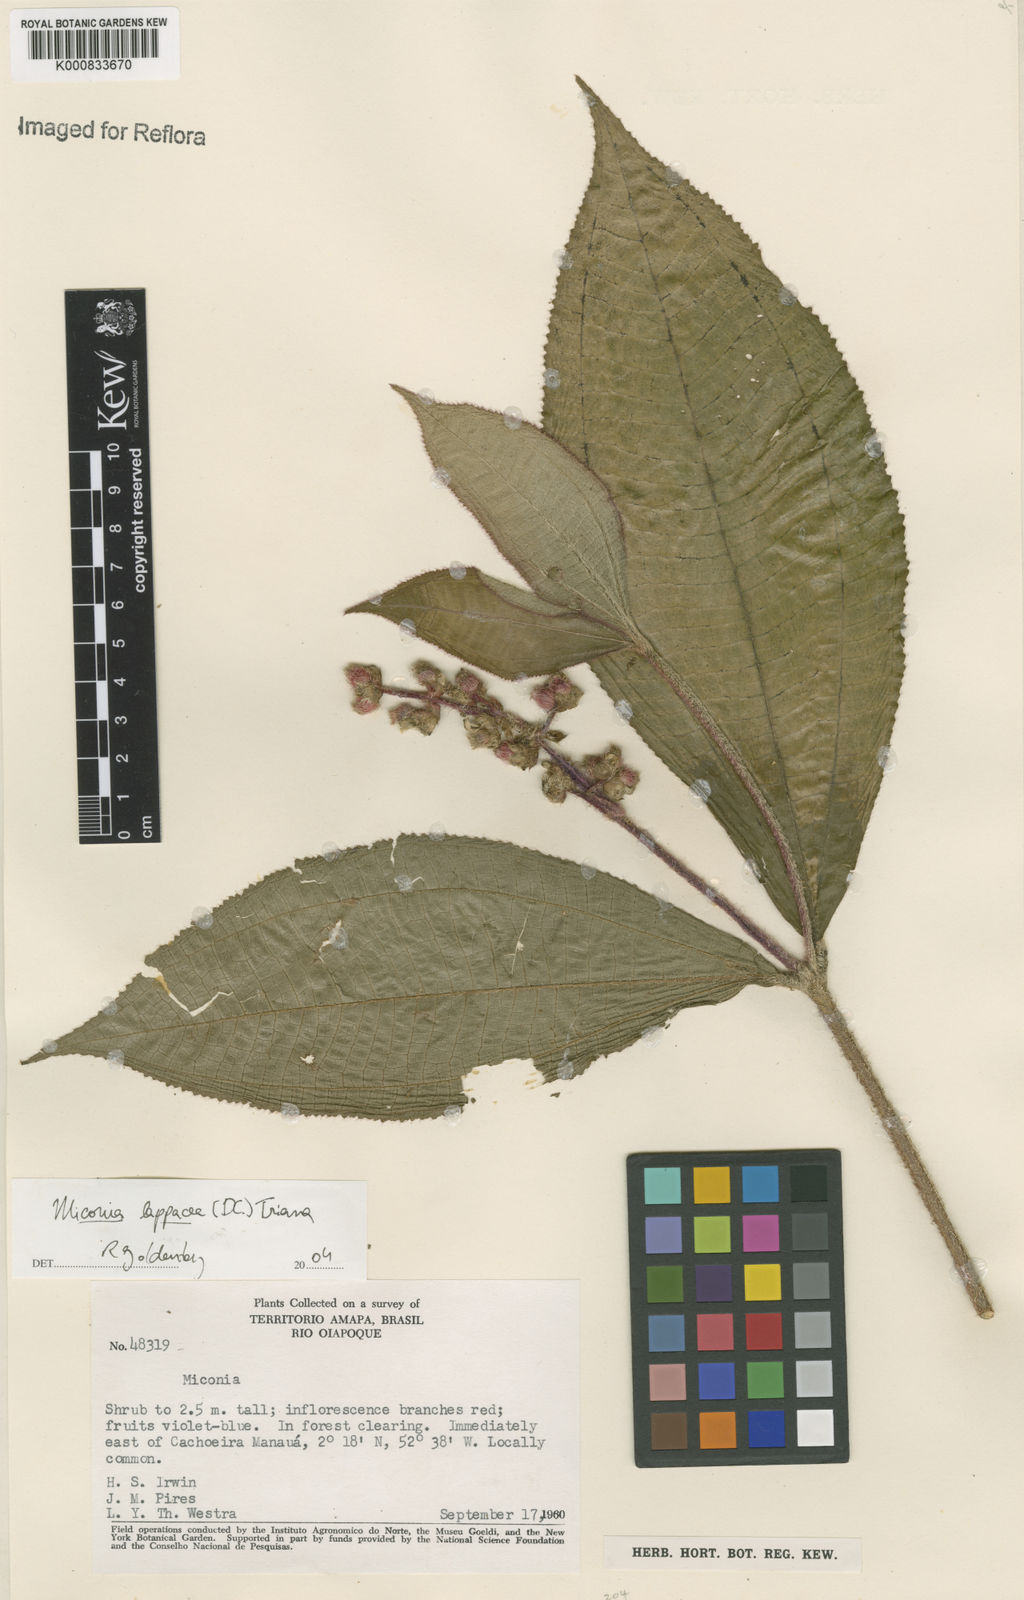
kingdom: Plantae
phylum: Tracheophyta
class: Magnoliopsida
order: Myrtales
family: Melastomataceae
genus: Miconia
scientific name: Miconia lappacea
